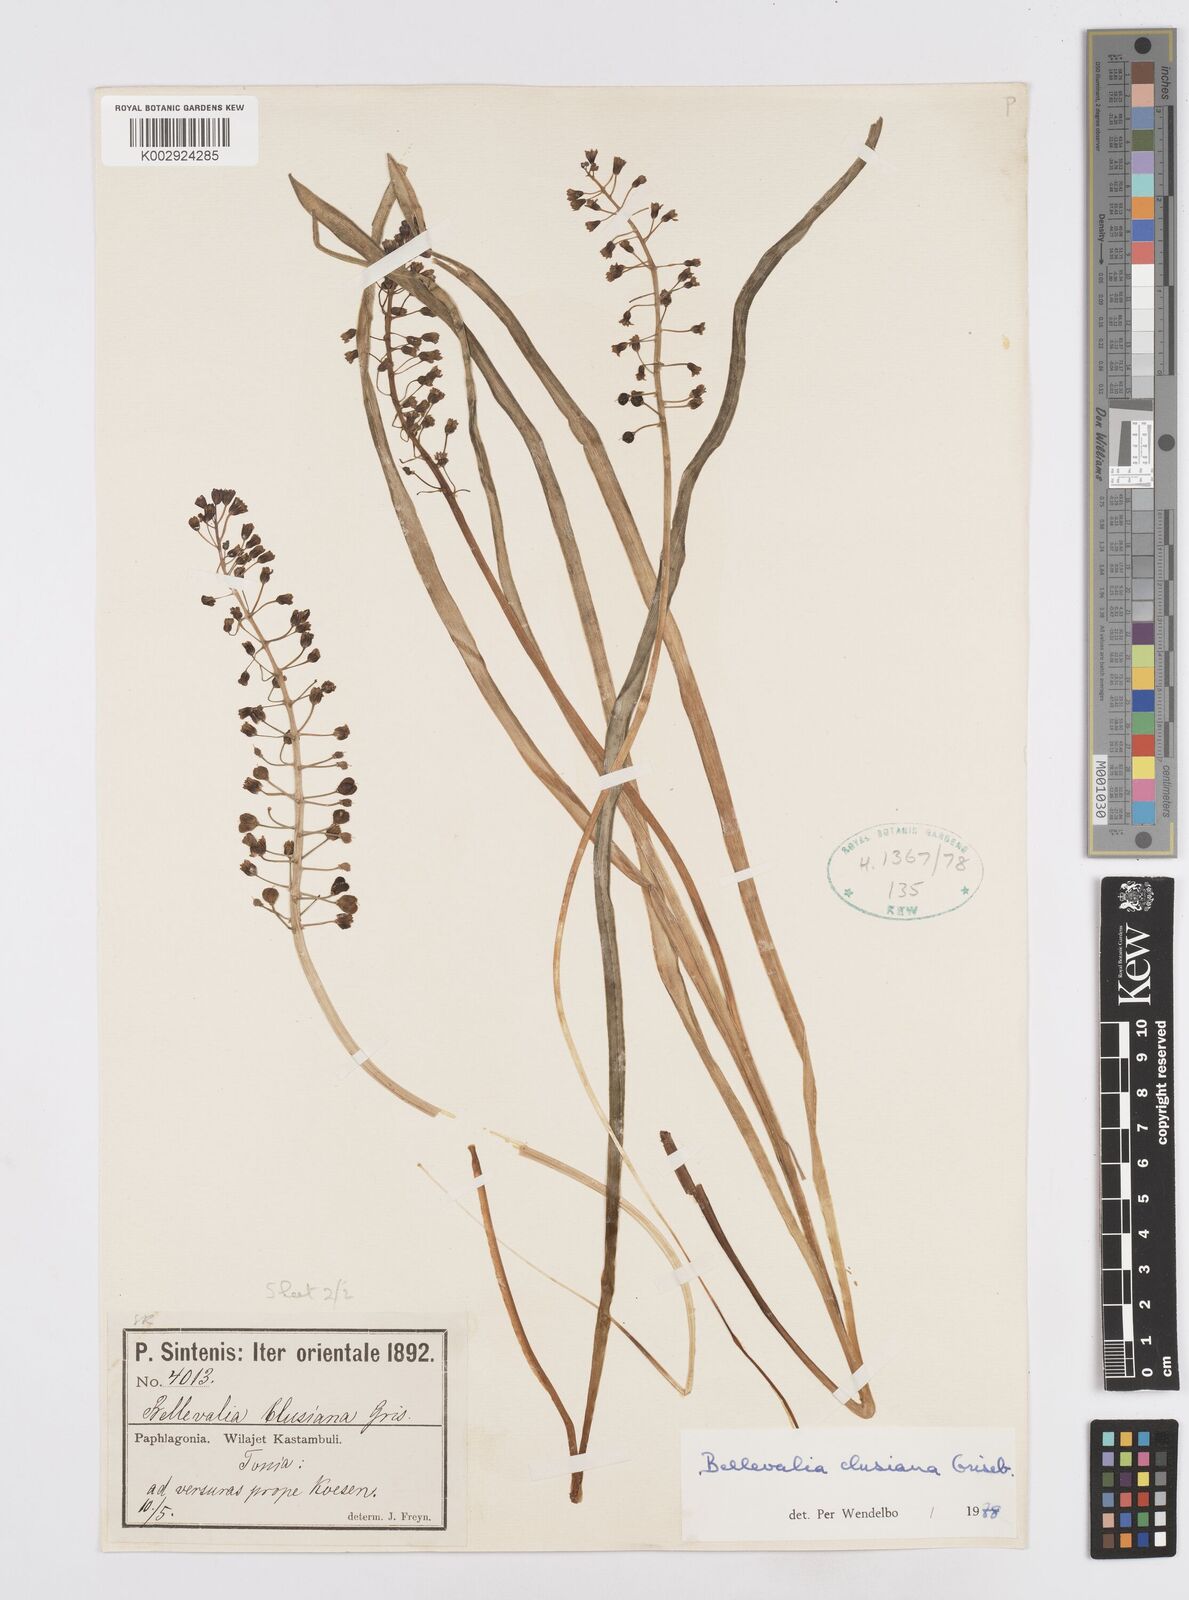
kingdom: Plantae
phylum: Tracheophyta
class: Liliopsida
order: Asparagales
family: Asparagaceae
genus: Bellevalia
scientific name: Bellevalia clusiana
